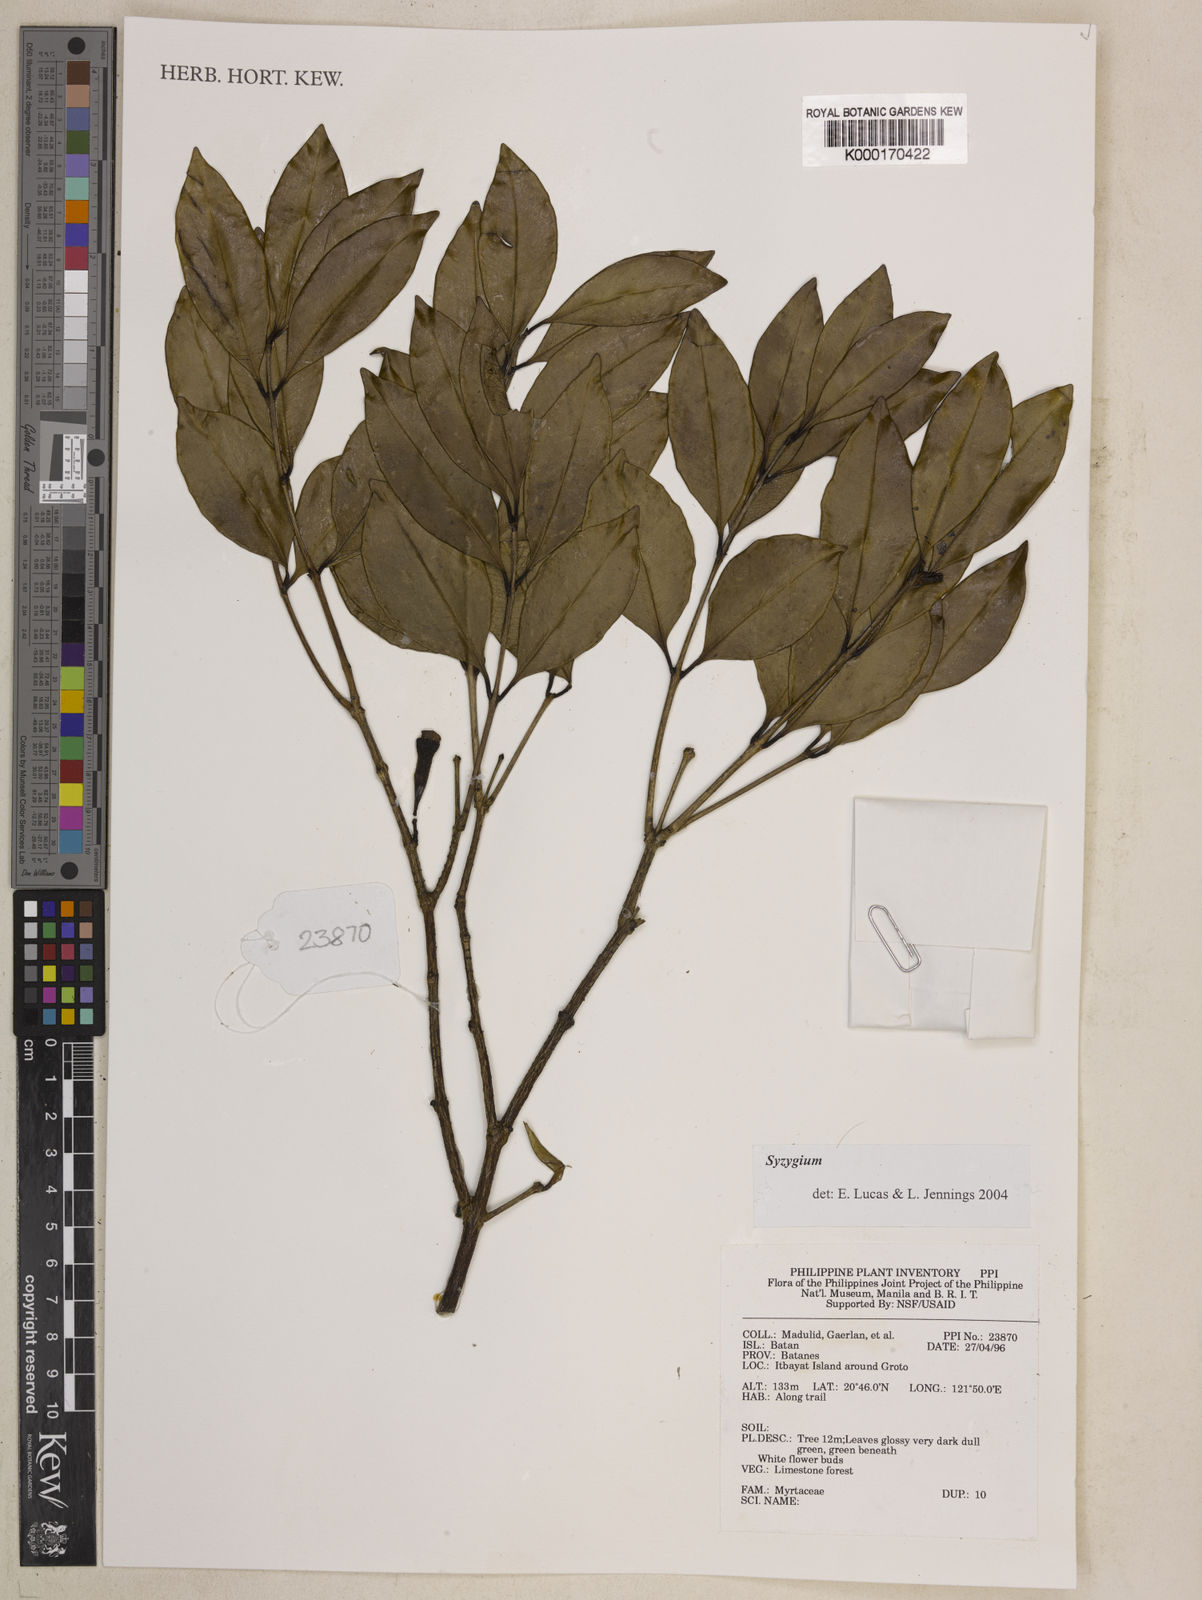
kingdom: Plantae
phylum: Tracheophyta
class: Magnoliopsida
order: Myrtales
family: Myrtaceae
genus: Syzygium
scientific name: Syzygium
